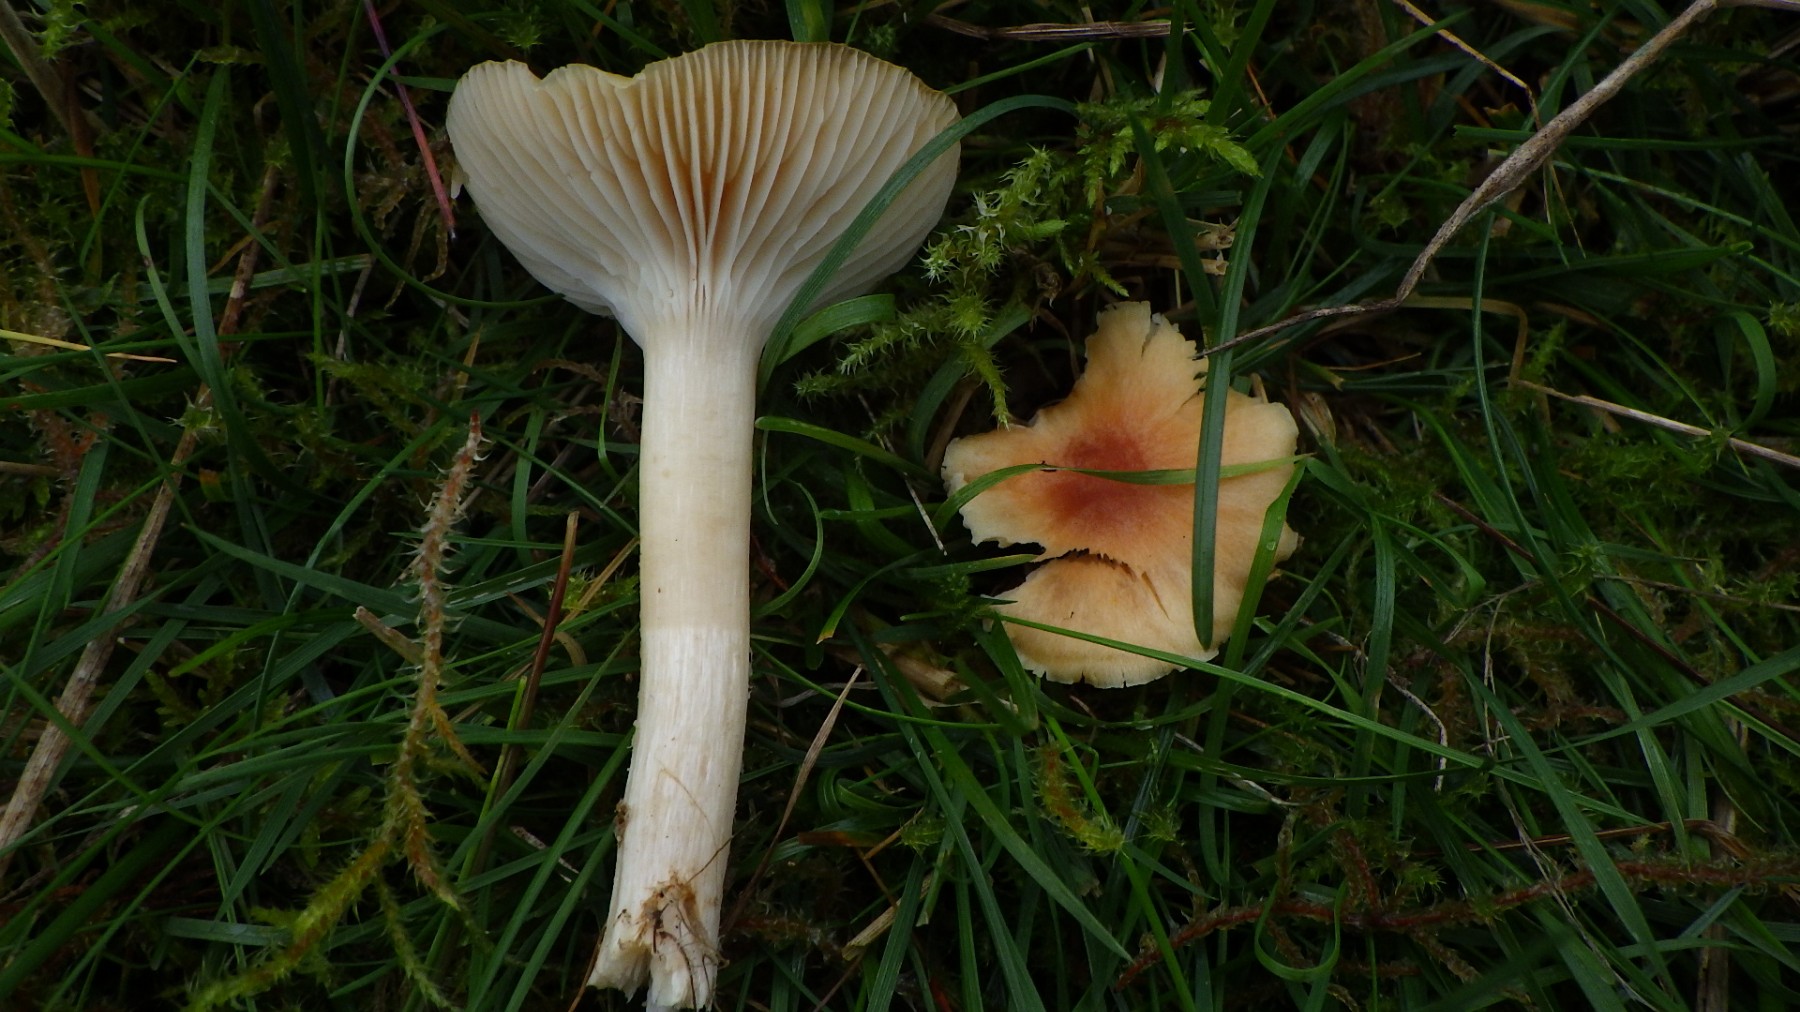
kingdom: Fungi
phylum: Basidiomycota
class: Agaricomycetes
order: Agaricales
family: Hygrophoraceae
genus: Cuphophyllus
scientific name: Cuphophyllus pratensis
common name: eng-vokshat
